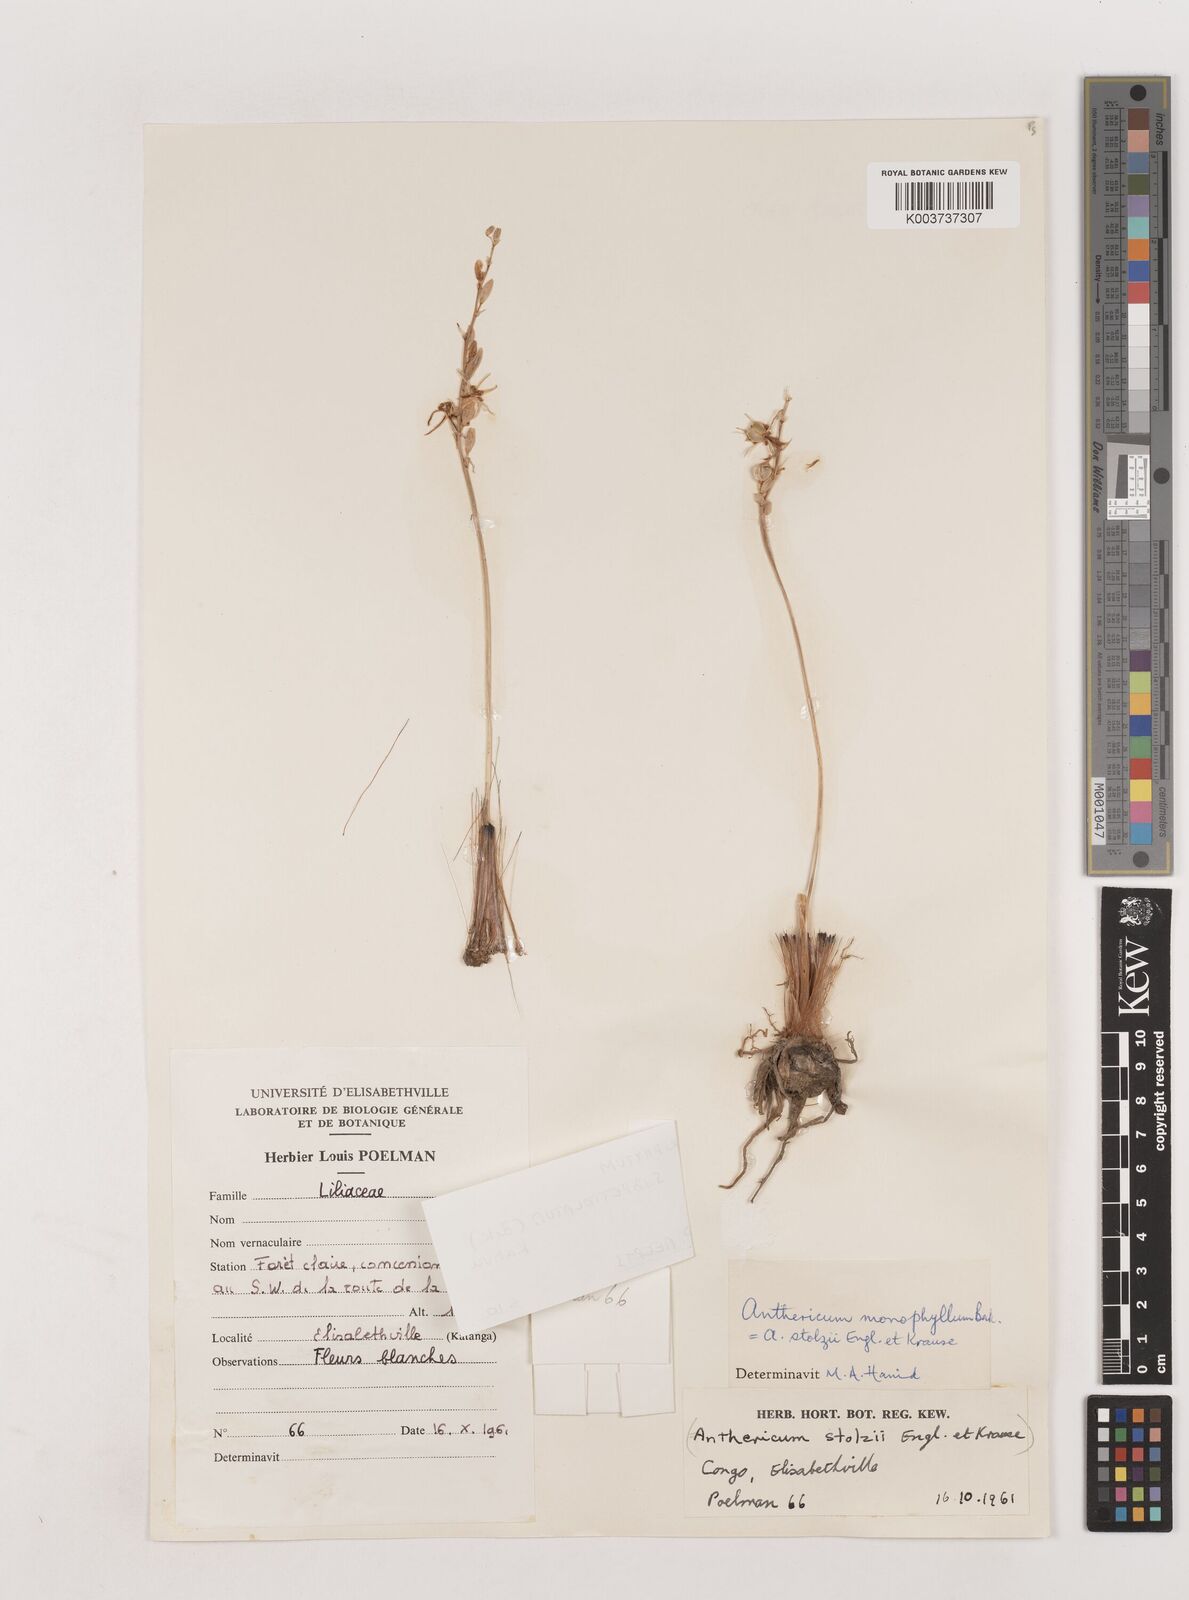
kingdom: Plantae
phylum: Tracheophyta
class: Liliopsida
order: Asparagales
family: Asparagaceae
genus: Chlorophytum
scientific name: Chlorophytum subpetiolatum
